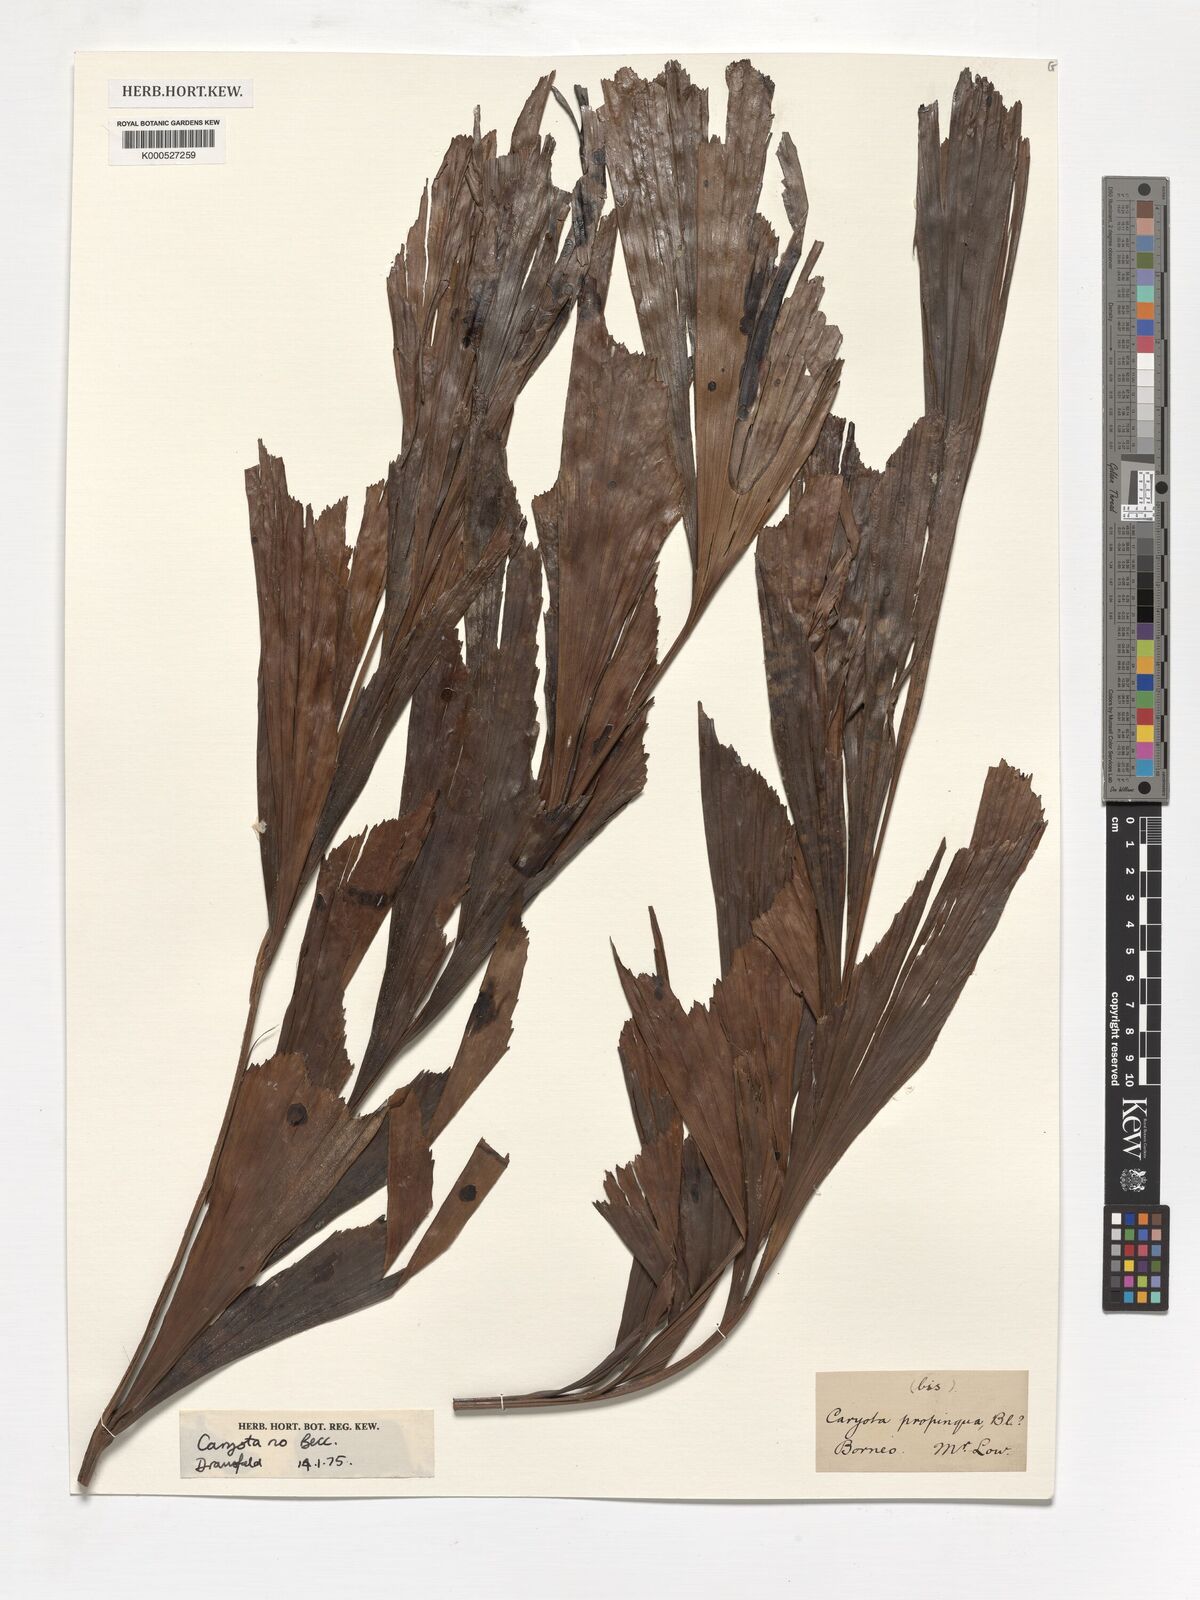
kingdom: Plantae
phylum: Tracheophyta
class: Liliopsida
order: Arecales
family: Arecaceae
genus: Caryota
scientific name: Caryota
